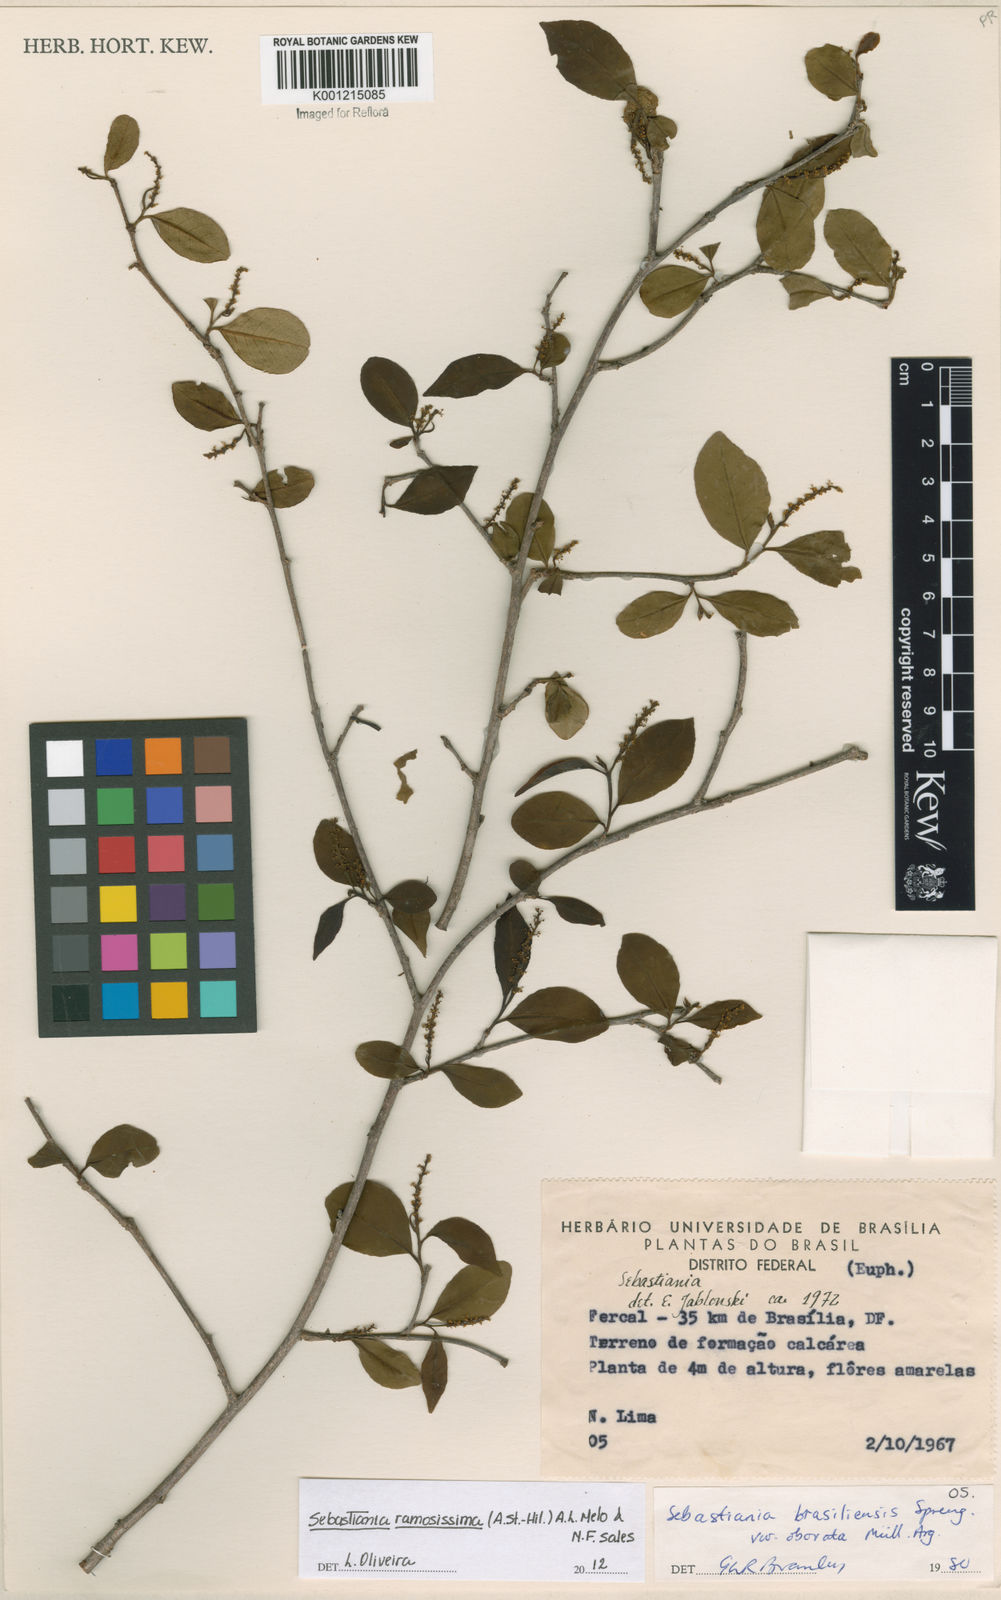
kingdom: Plantae
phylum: Tracheophyta
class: Magnoliopsida
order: Malpighiales
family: Euphorbiaceae
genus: Sebastiania
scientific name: Sebastiania
